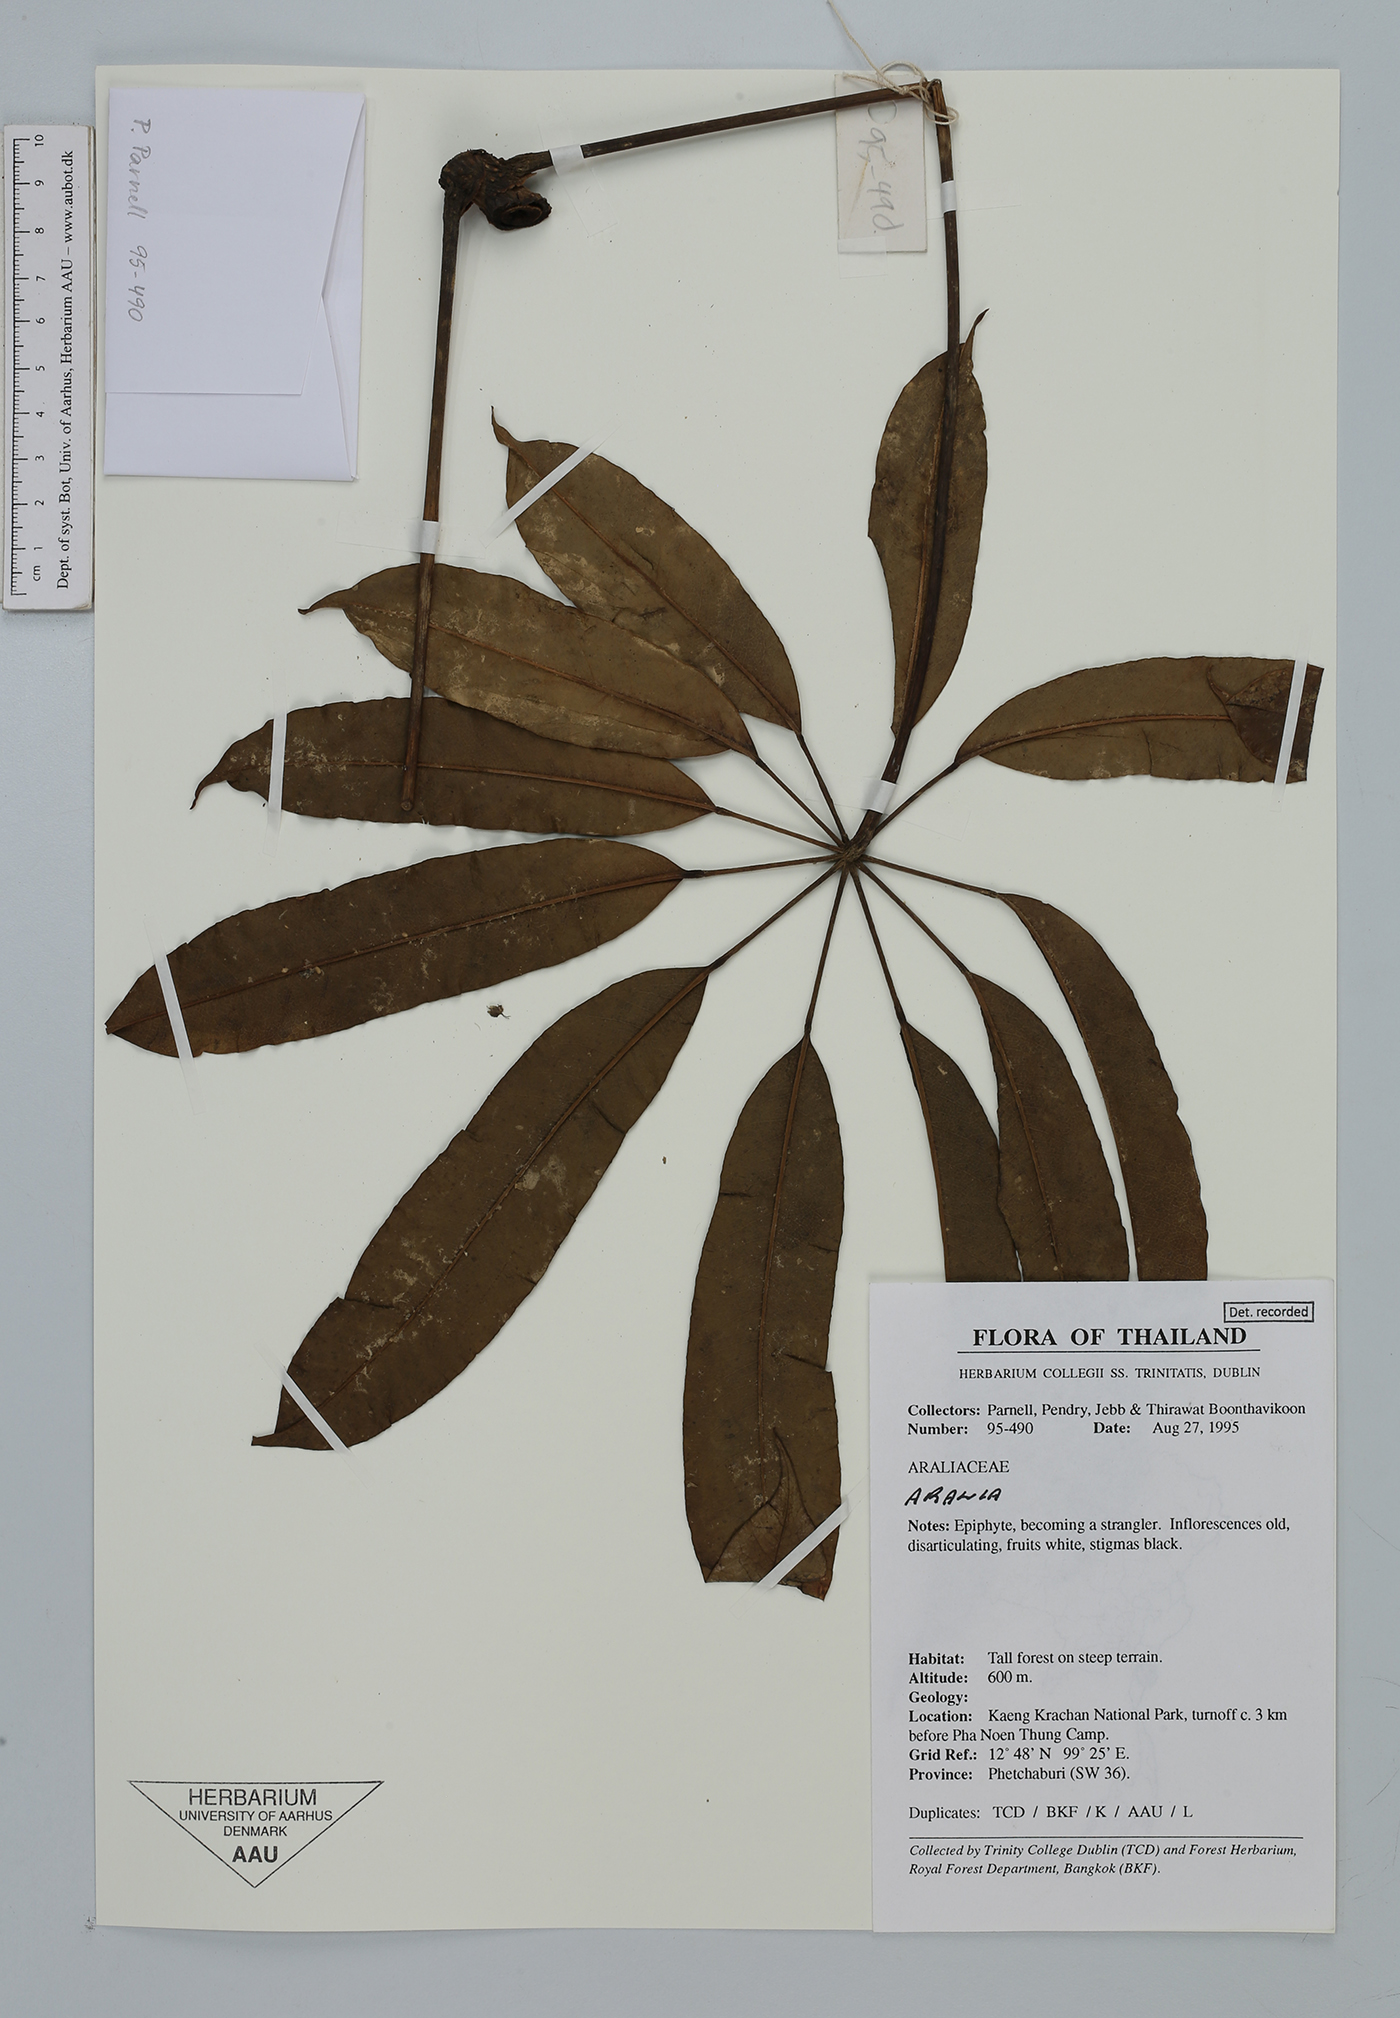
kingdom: Plantae
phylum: Tracheophyta
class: Magnoliopsida
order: Apiales
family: Araliaceae
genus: Aralia
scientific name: Aralia
